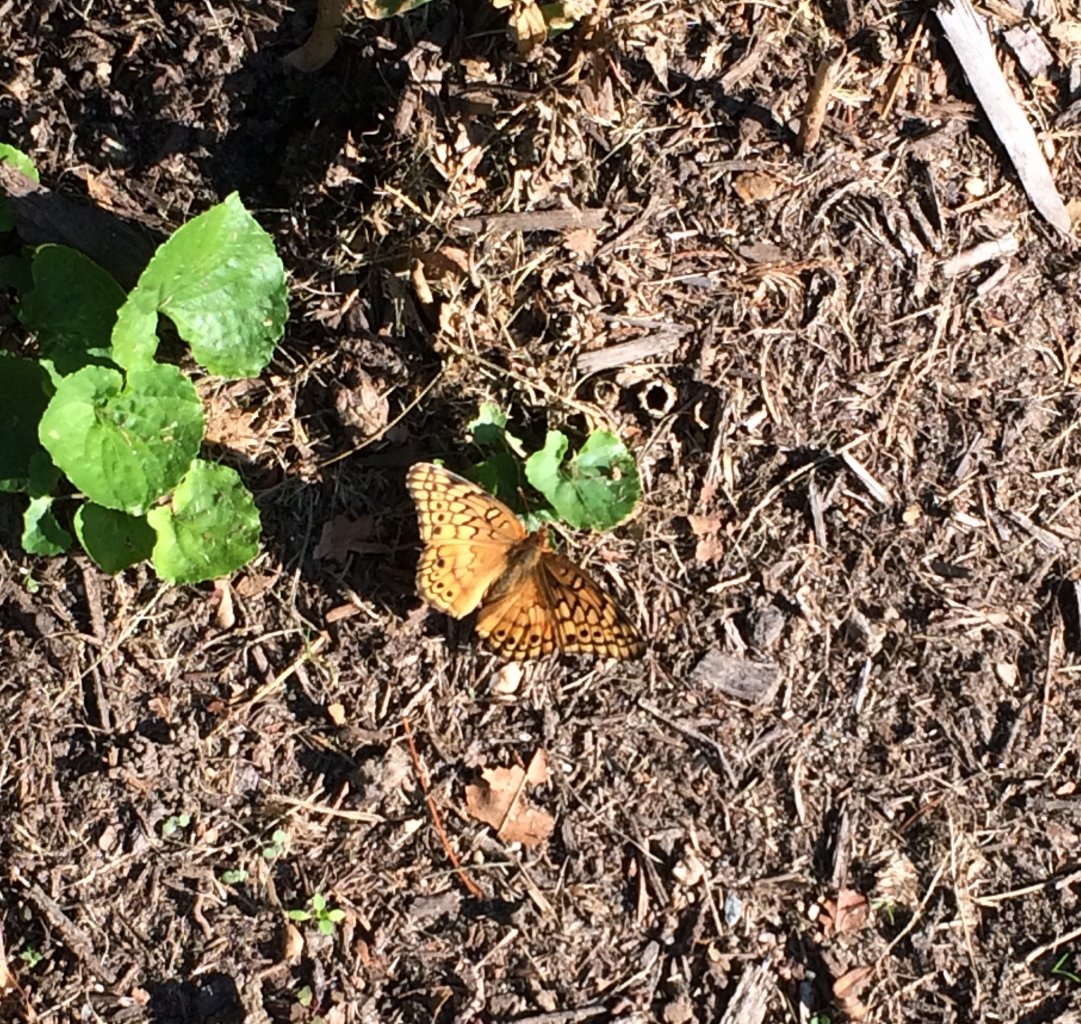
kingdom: Animalia
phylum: Arthropoda
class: Insecta
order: Lepidoptera
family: Nymphalidae
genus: Euptoieta
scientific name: Euptoieta claudia
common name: Variegated Fritillary
